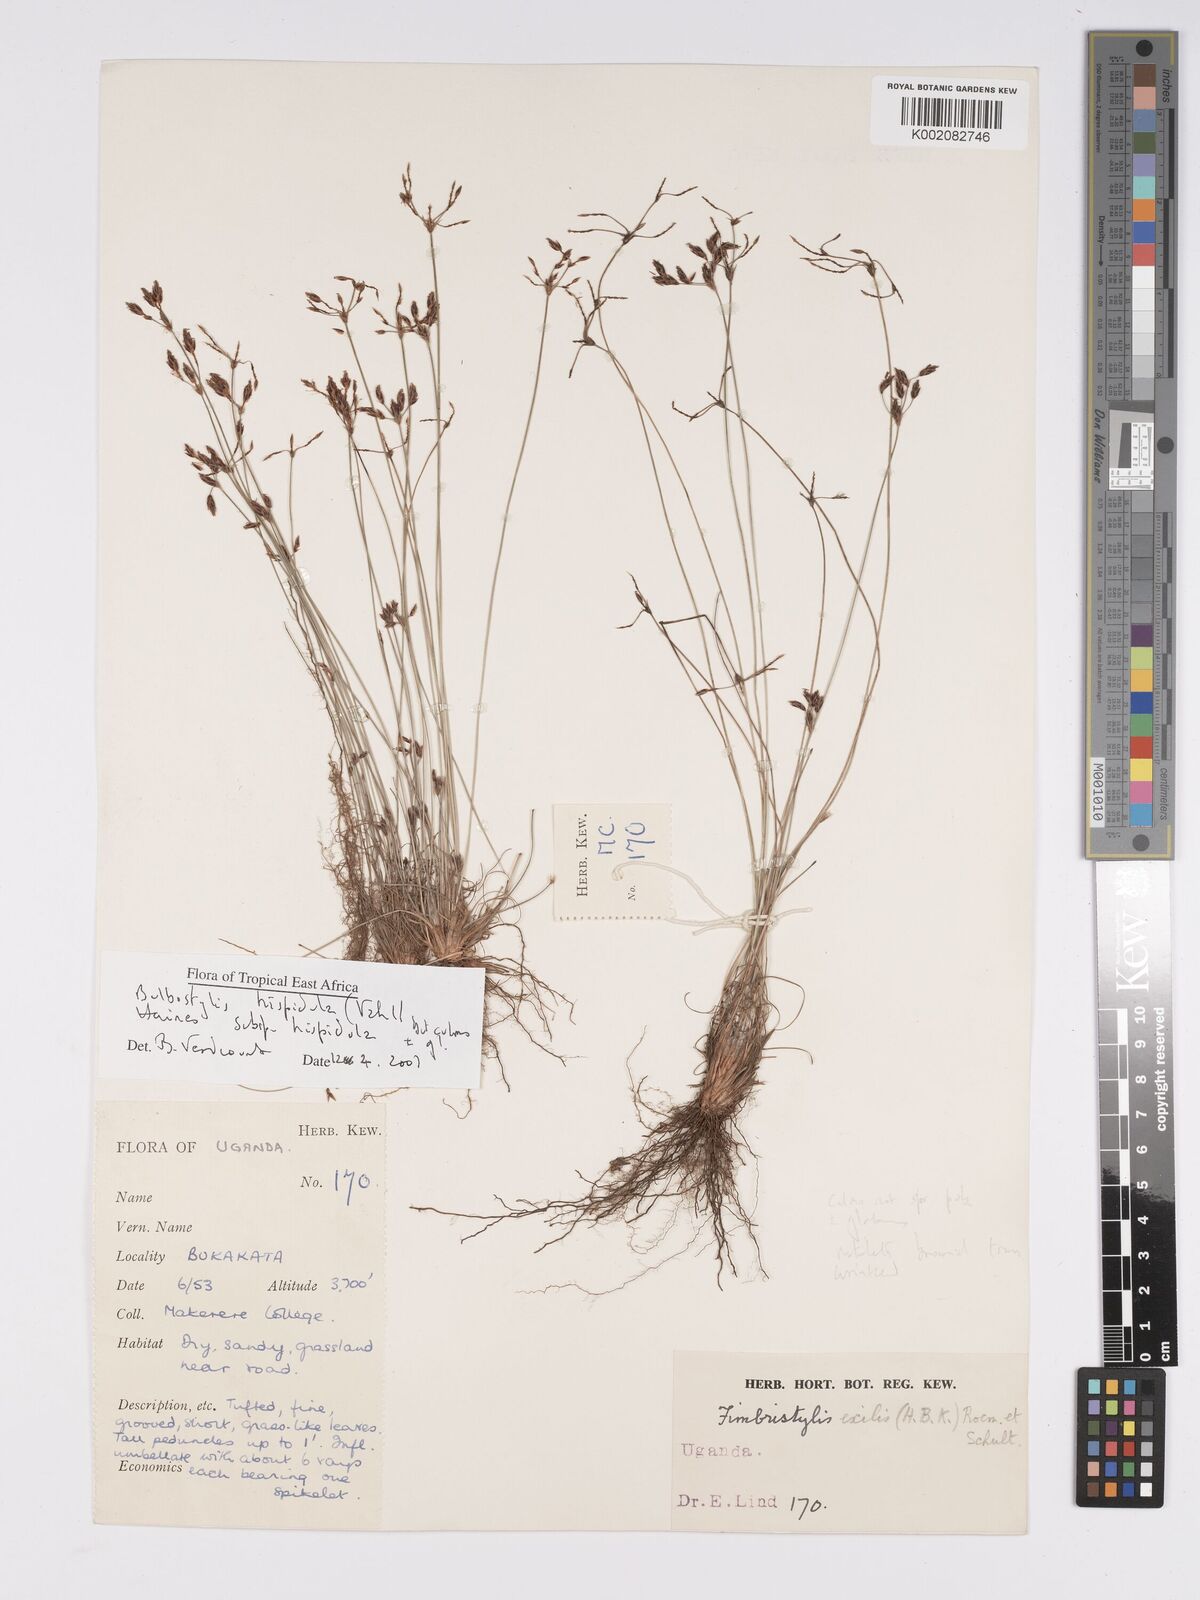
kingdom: Plantae
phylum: Tracheophyta
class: Liliopsida
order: Poales
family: Cyperaceae
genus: Bulbostylis
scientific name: Bulbostylis hispidula
